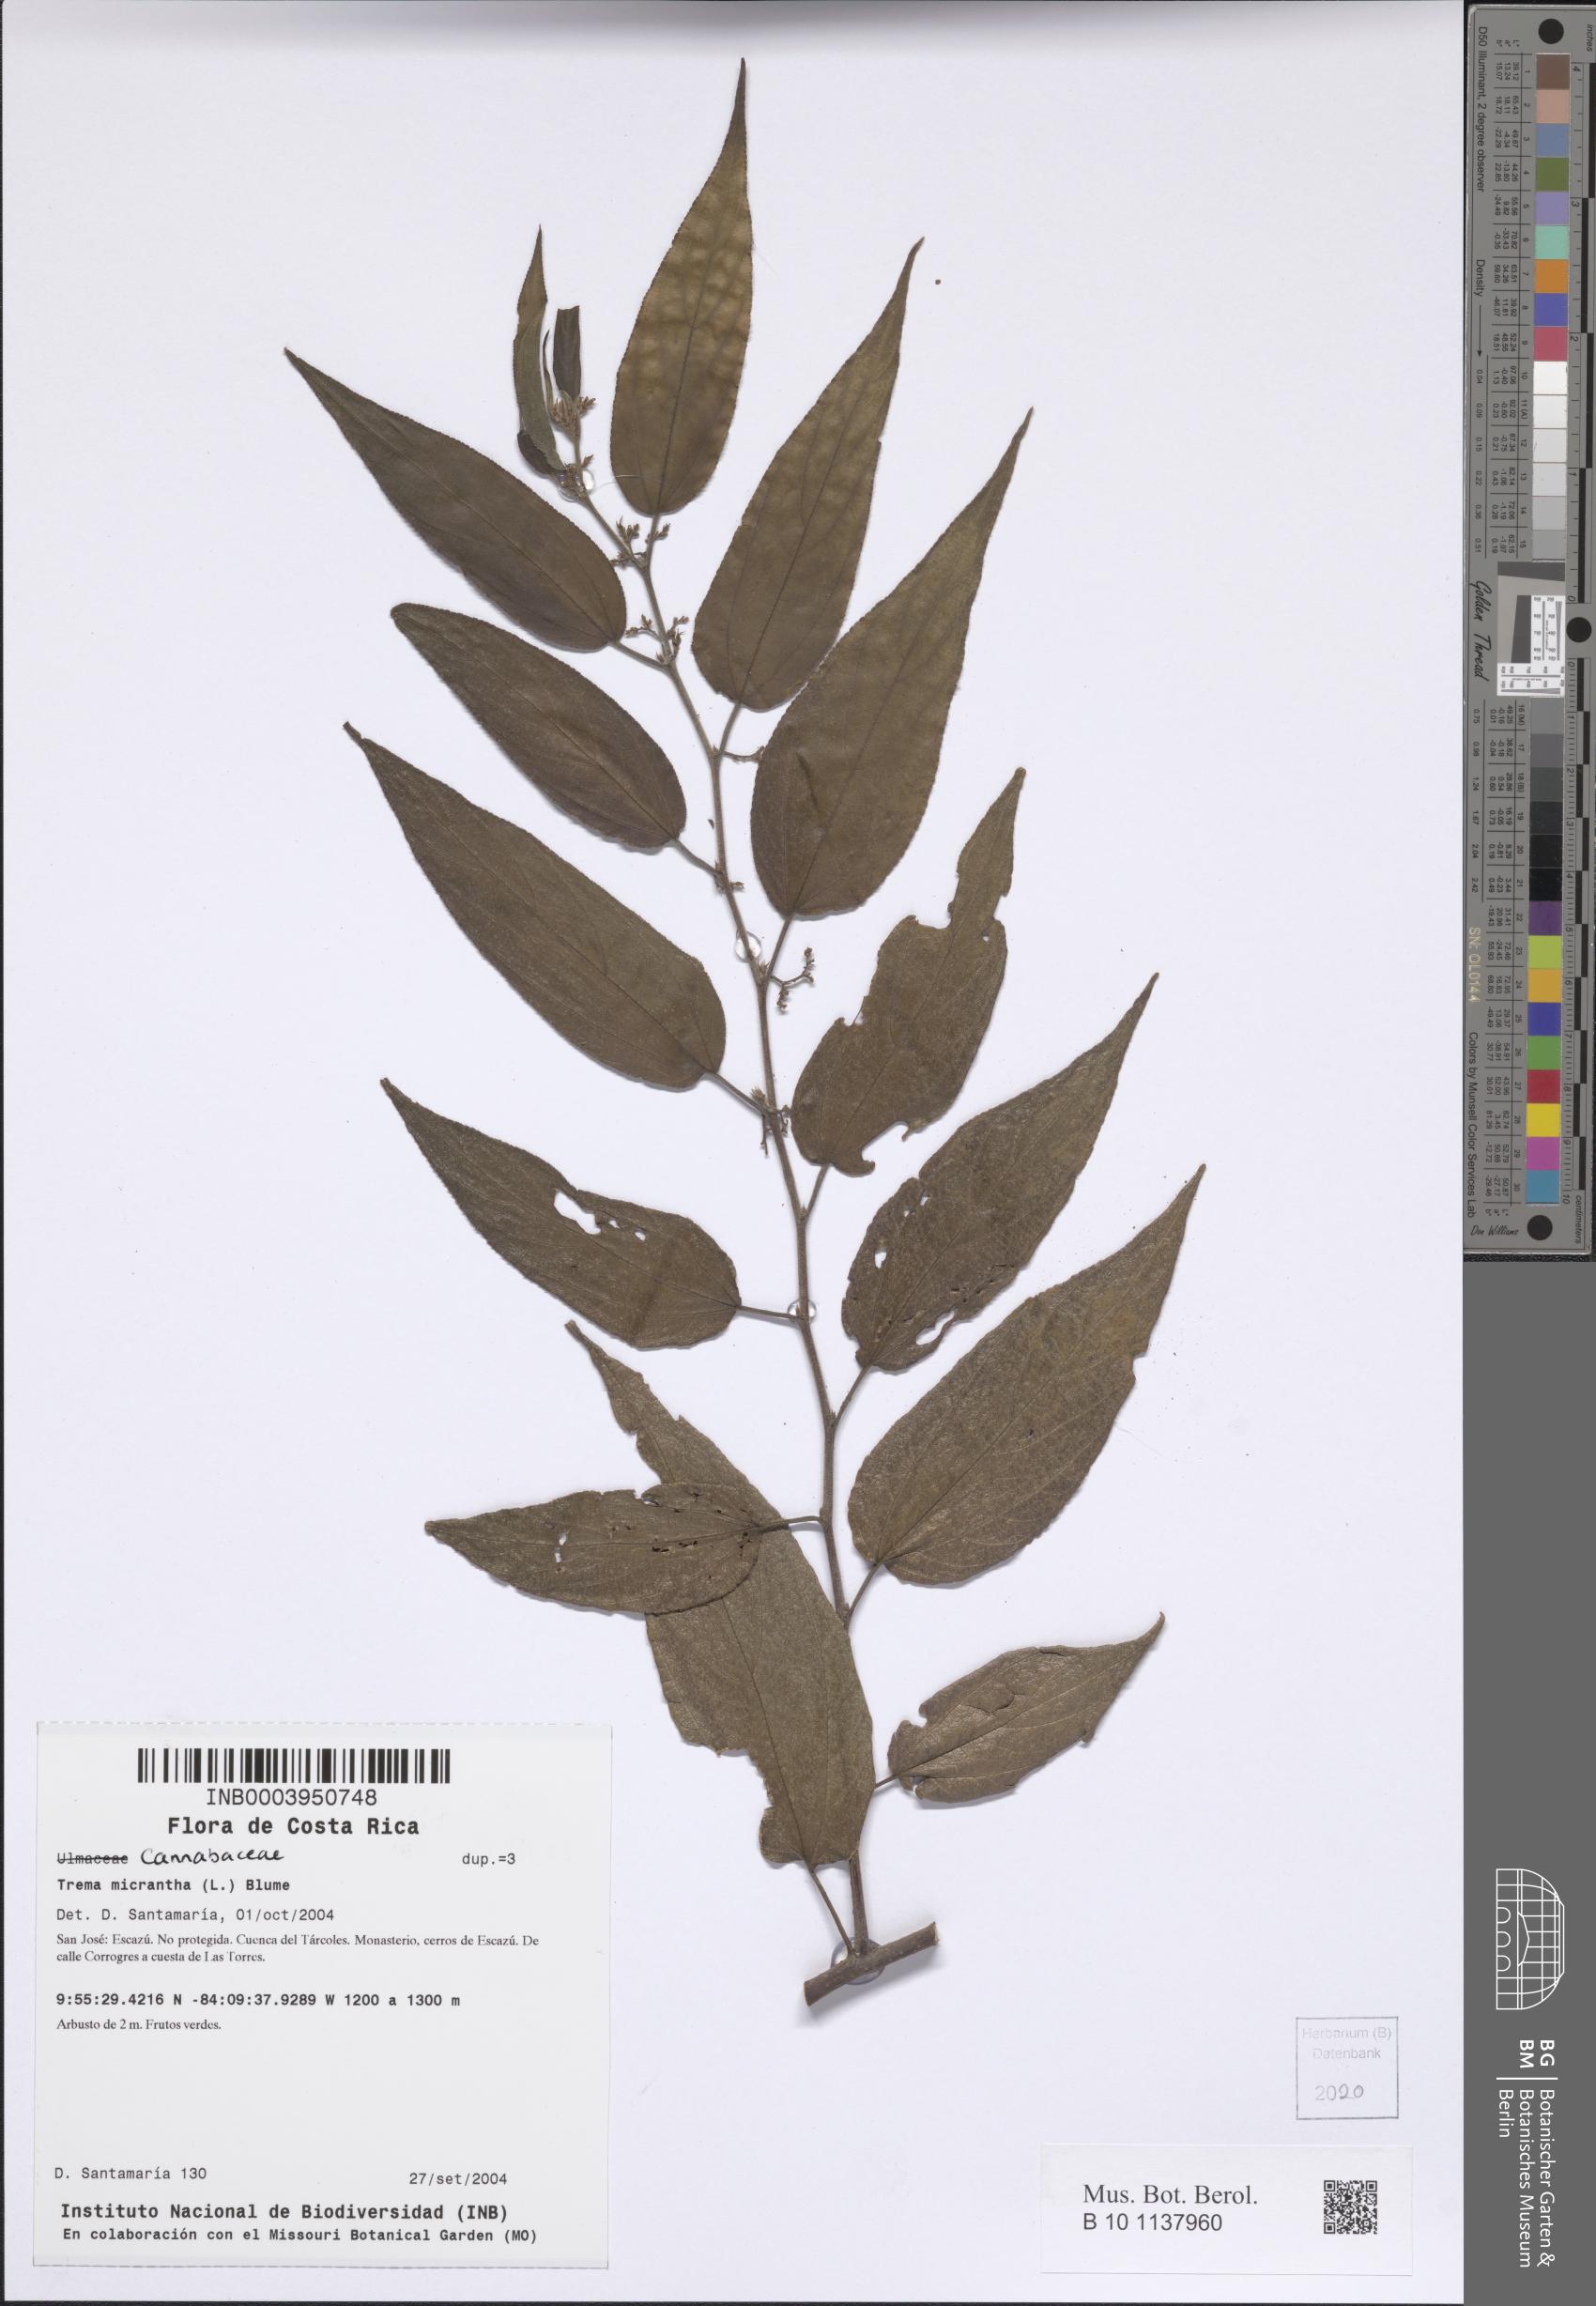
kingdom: Plantae
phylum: Tracheophyta
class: Magnoliopsida
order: Rosales
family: Cannabaceae
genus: Trema
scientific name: Trema micranthum
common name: Jamaican nettletree
